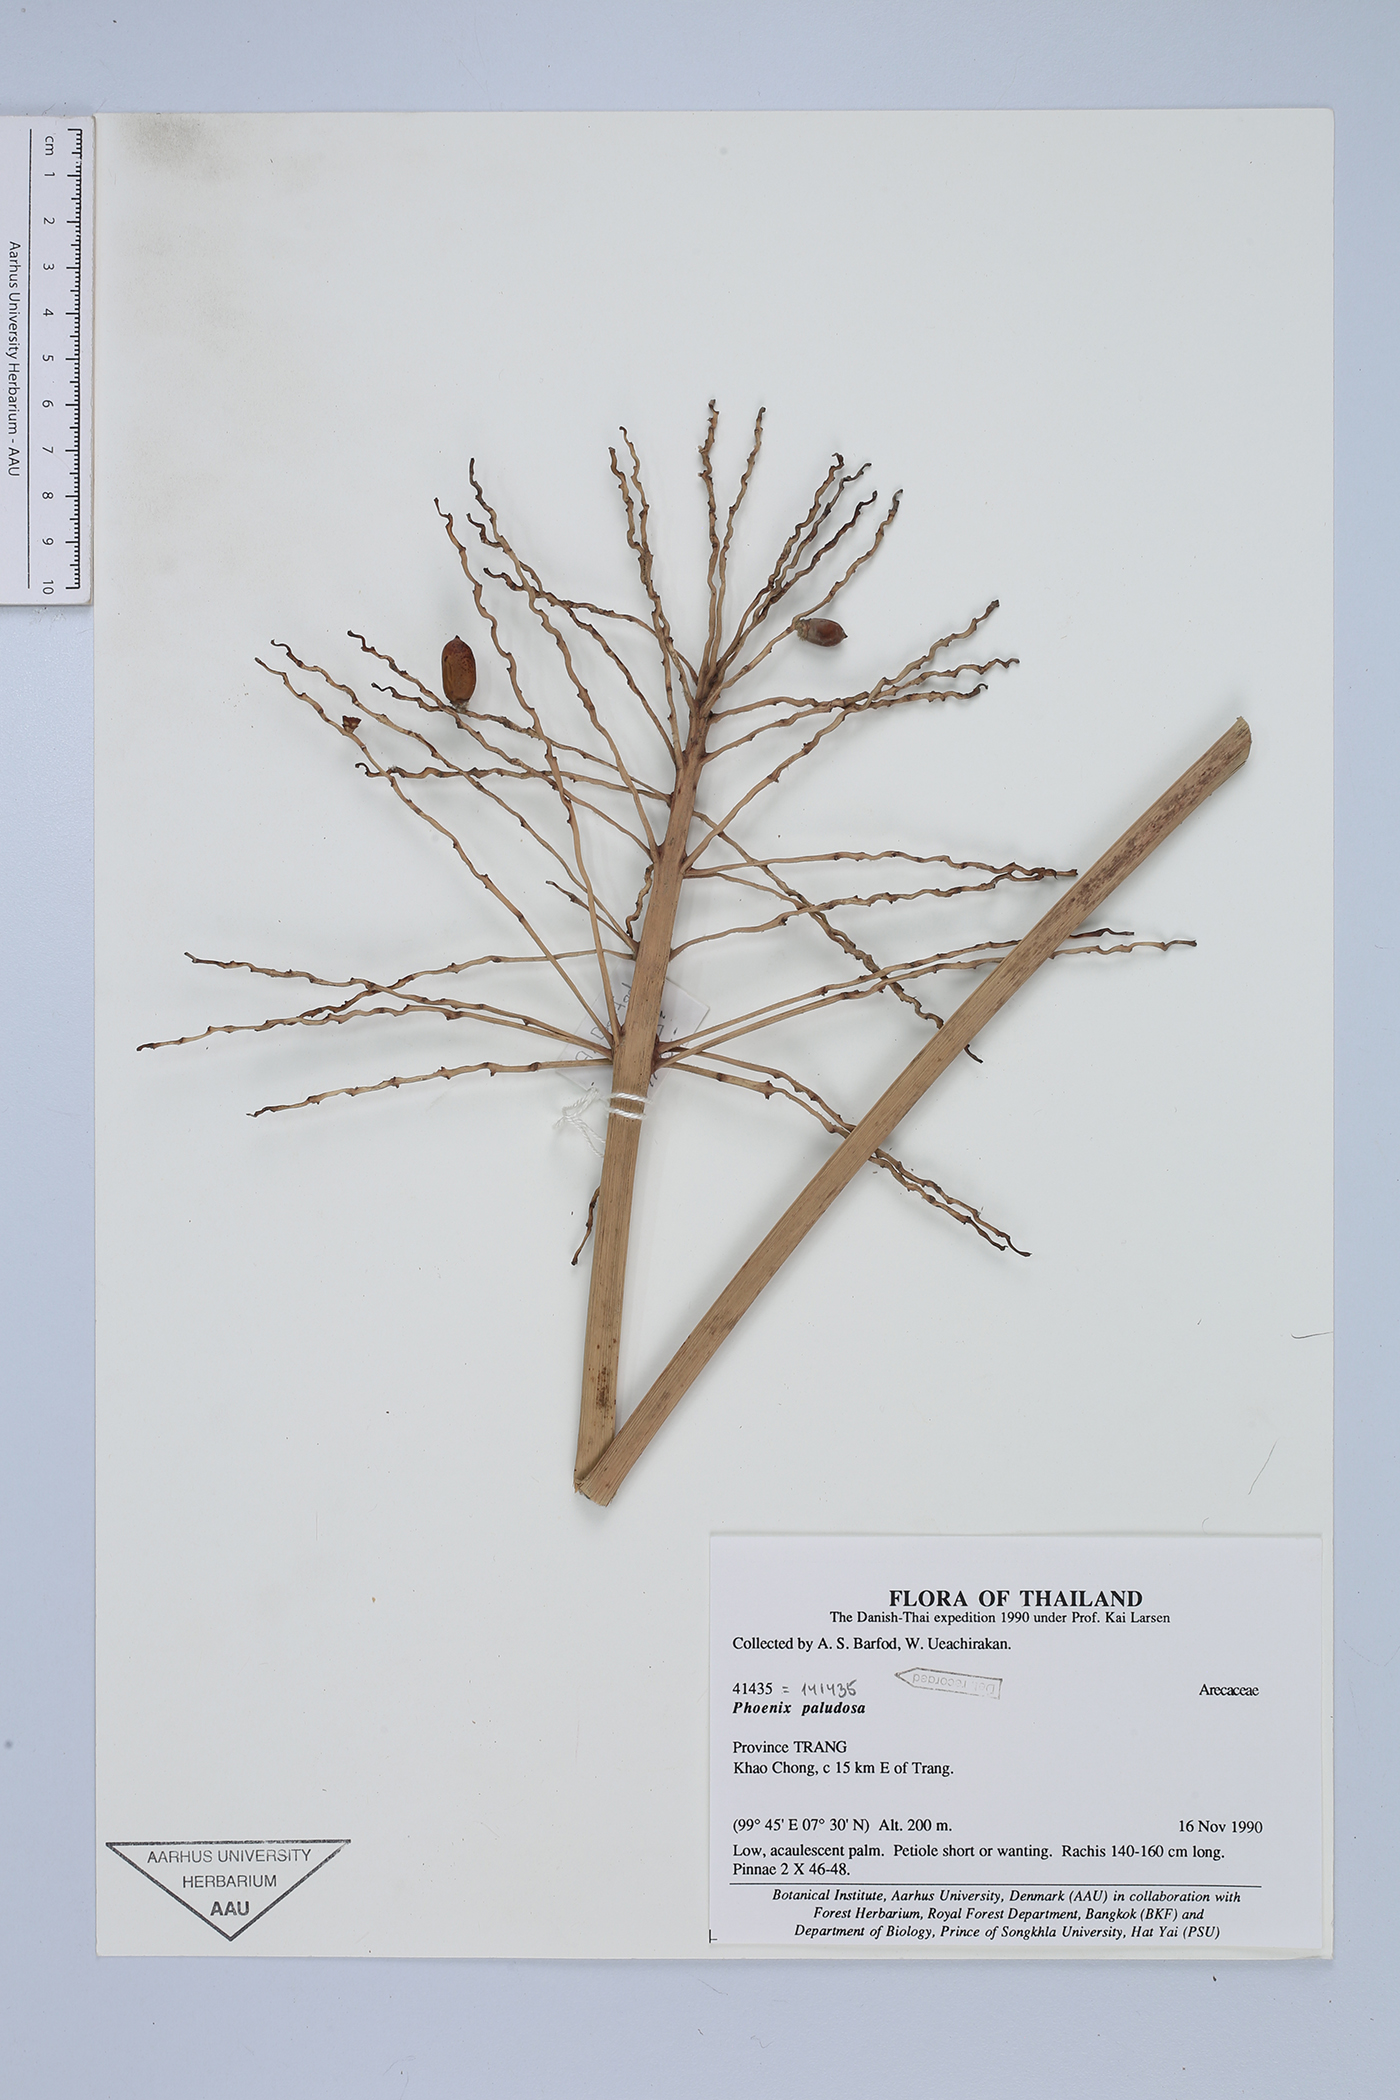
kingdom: Plantae
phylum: Tracheophyta
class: Liliopsida
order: Arecales
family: Arecaceae
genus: Phoenix
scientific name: Phoenix paludosa
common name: Mangrove date palm
